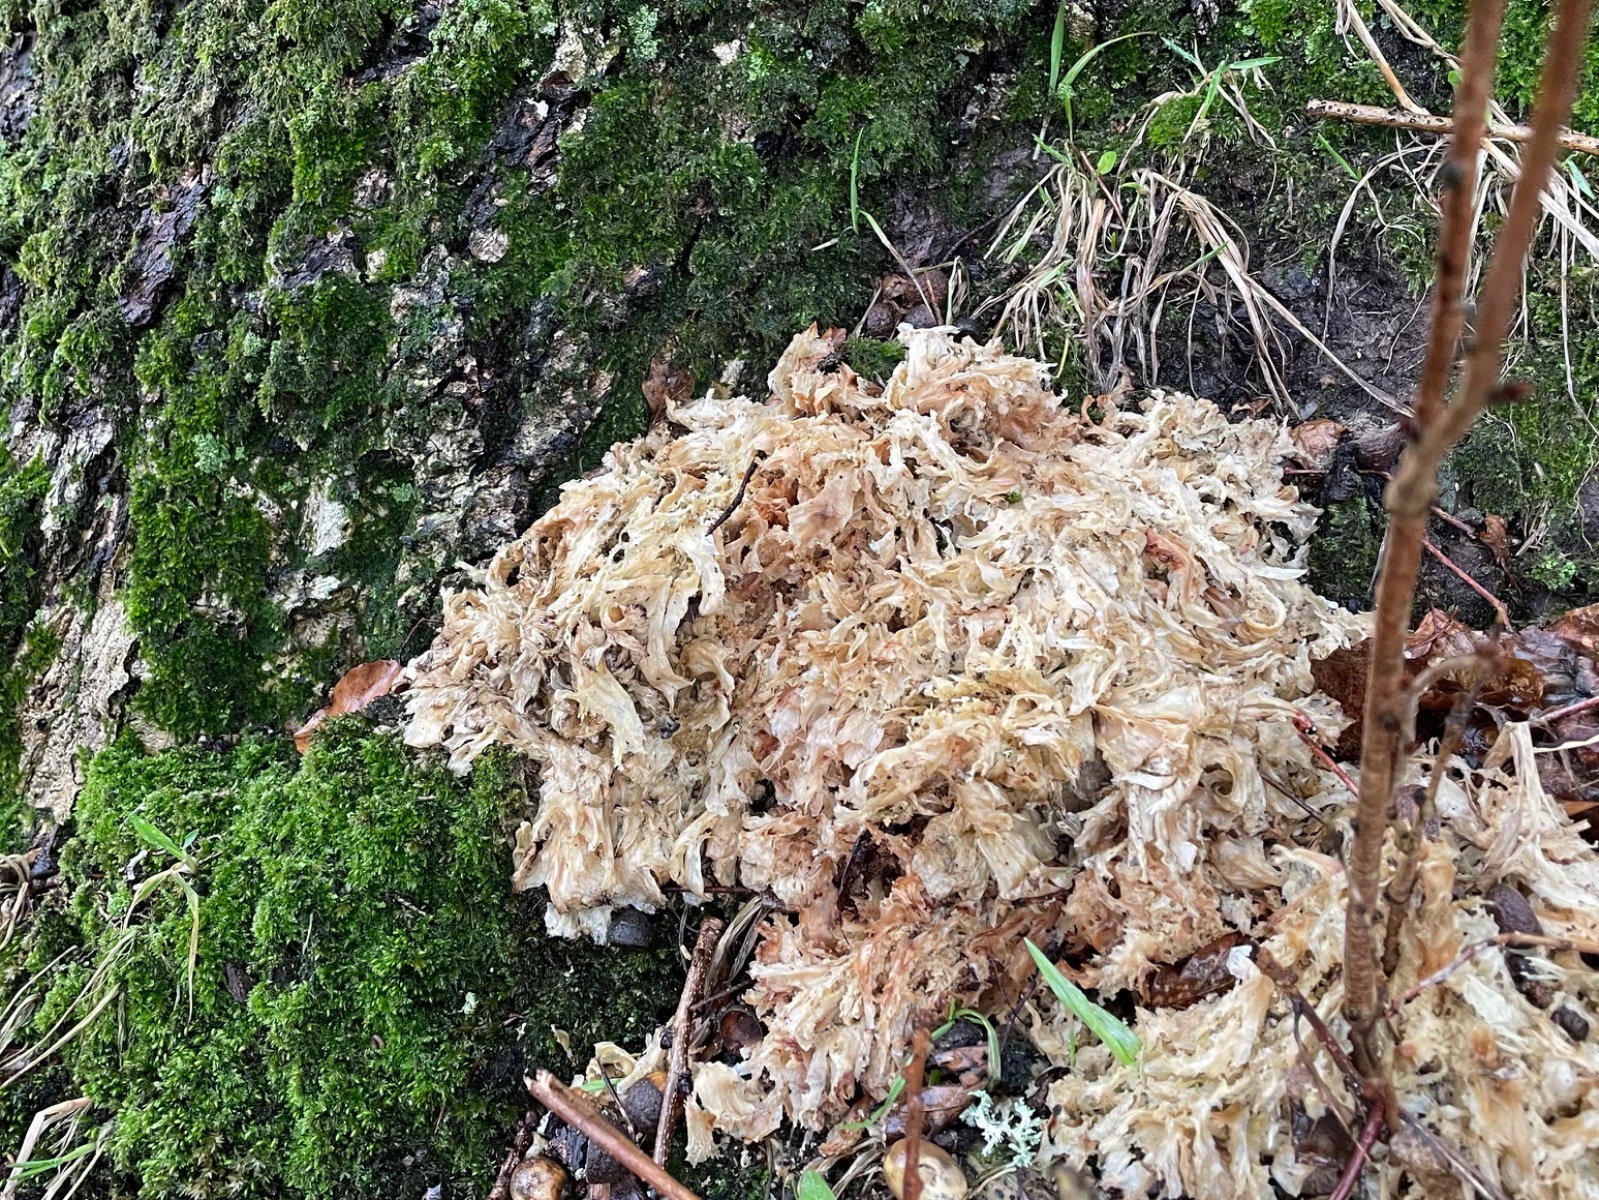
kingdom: Fungi
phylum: Basidiomycota
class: Agaricomycetes
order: Polyporales
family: Grifolaceae
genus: Grifola
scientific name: Grifola frondosa
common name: tueporesvamp
